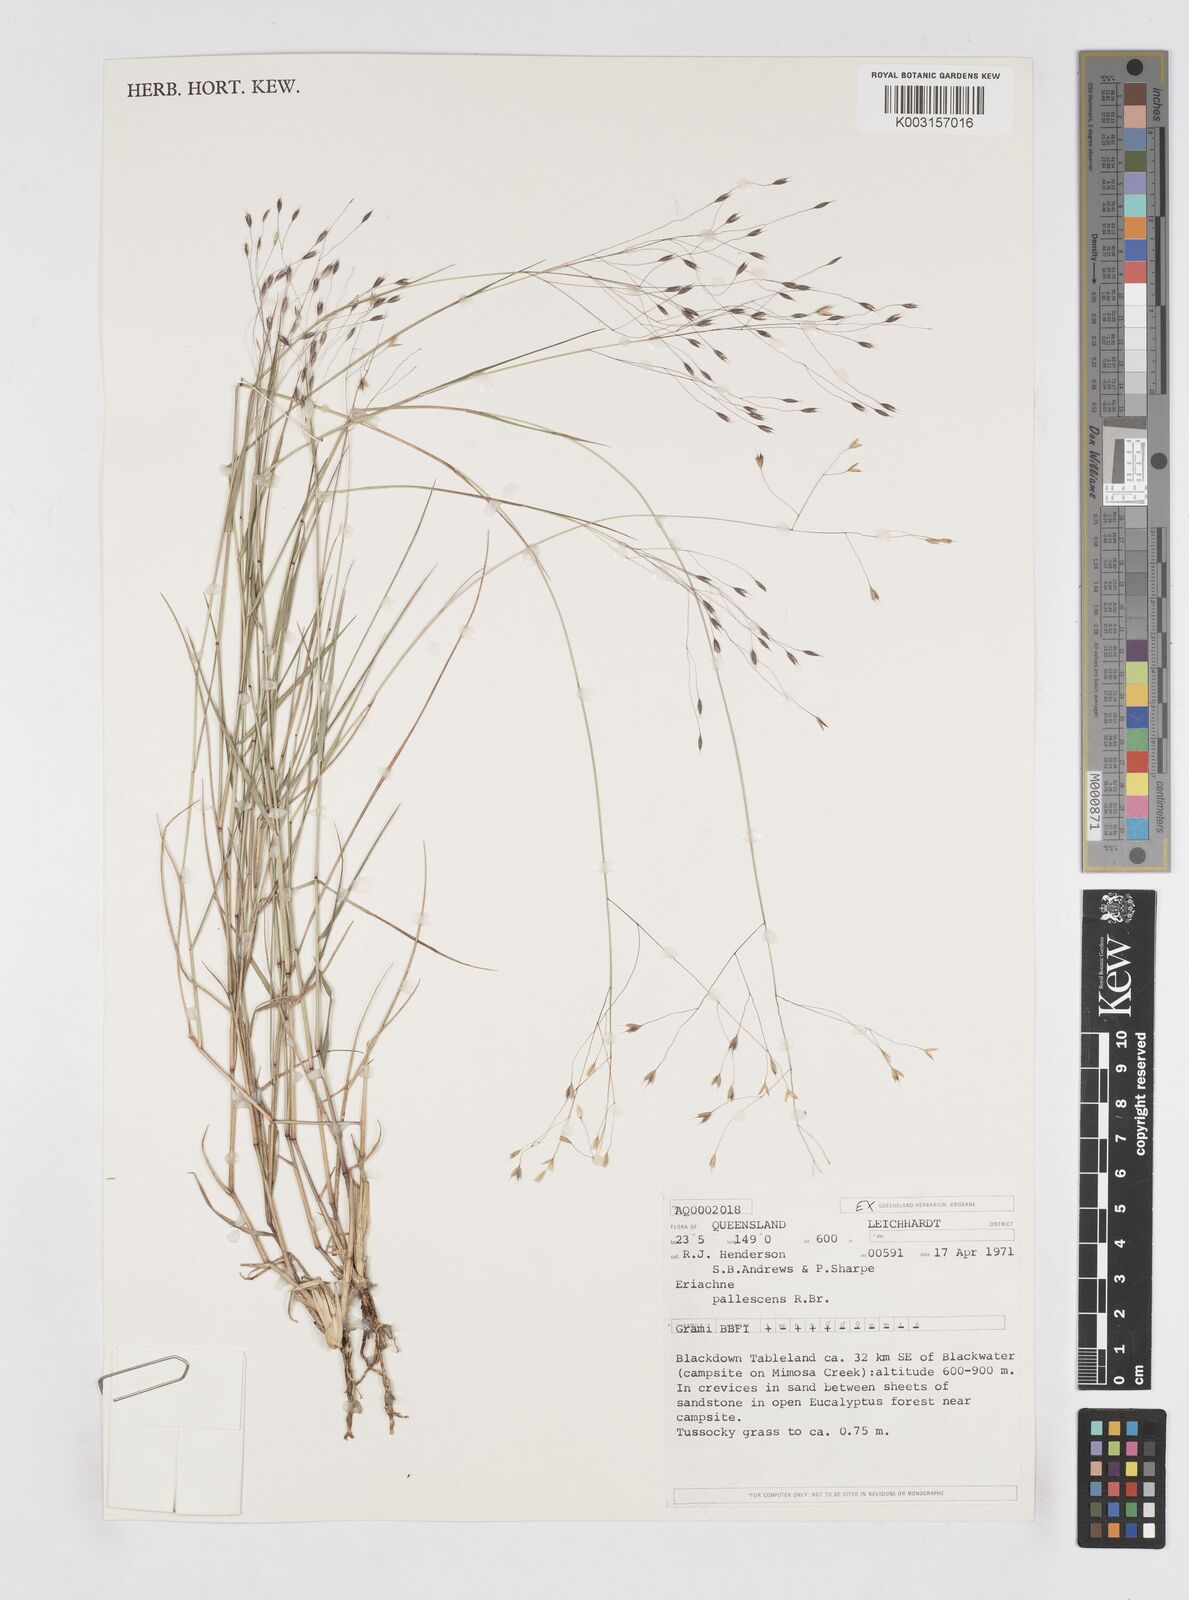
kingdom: Plantae
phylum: Tracheophyta
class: Liliopsida
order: Poales
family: Poaceae
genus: Eriachne
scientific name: Eriachne pallescens
